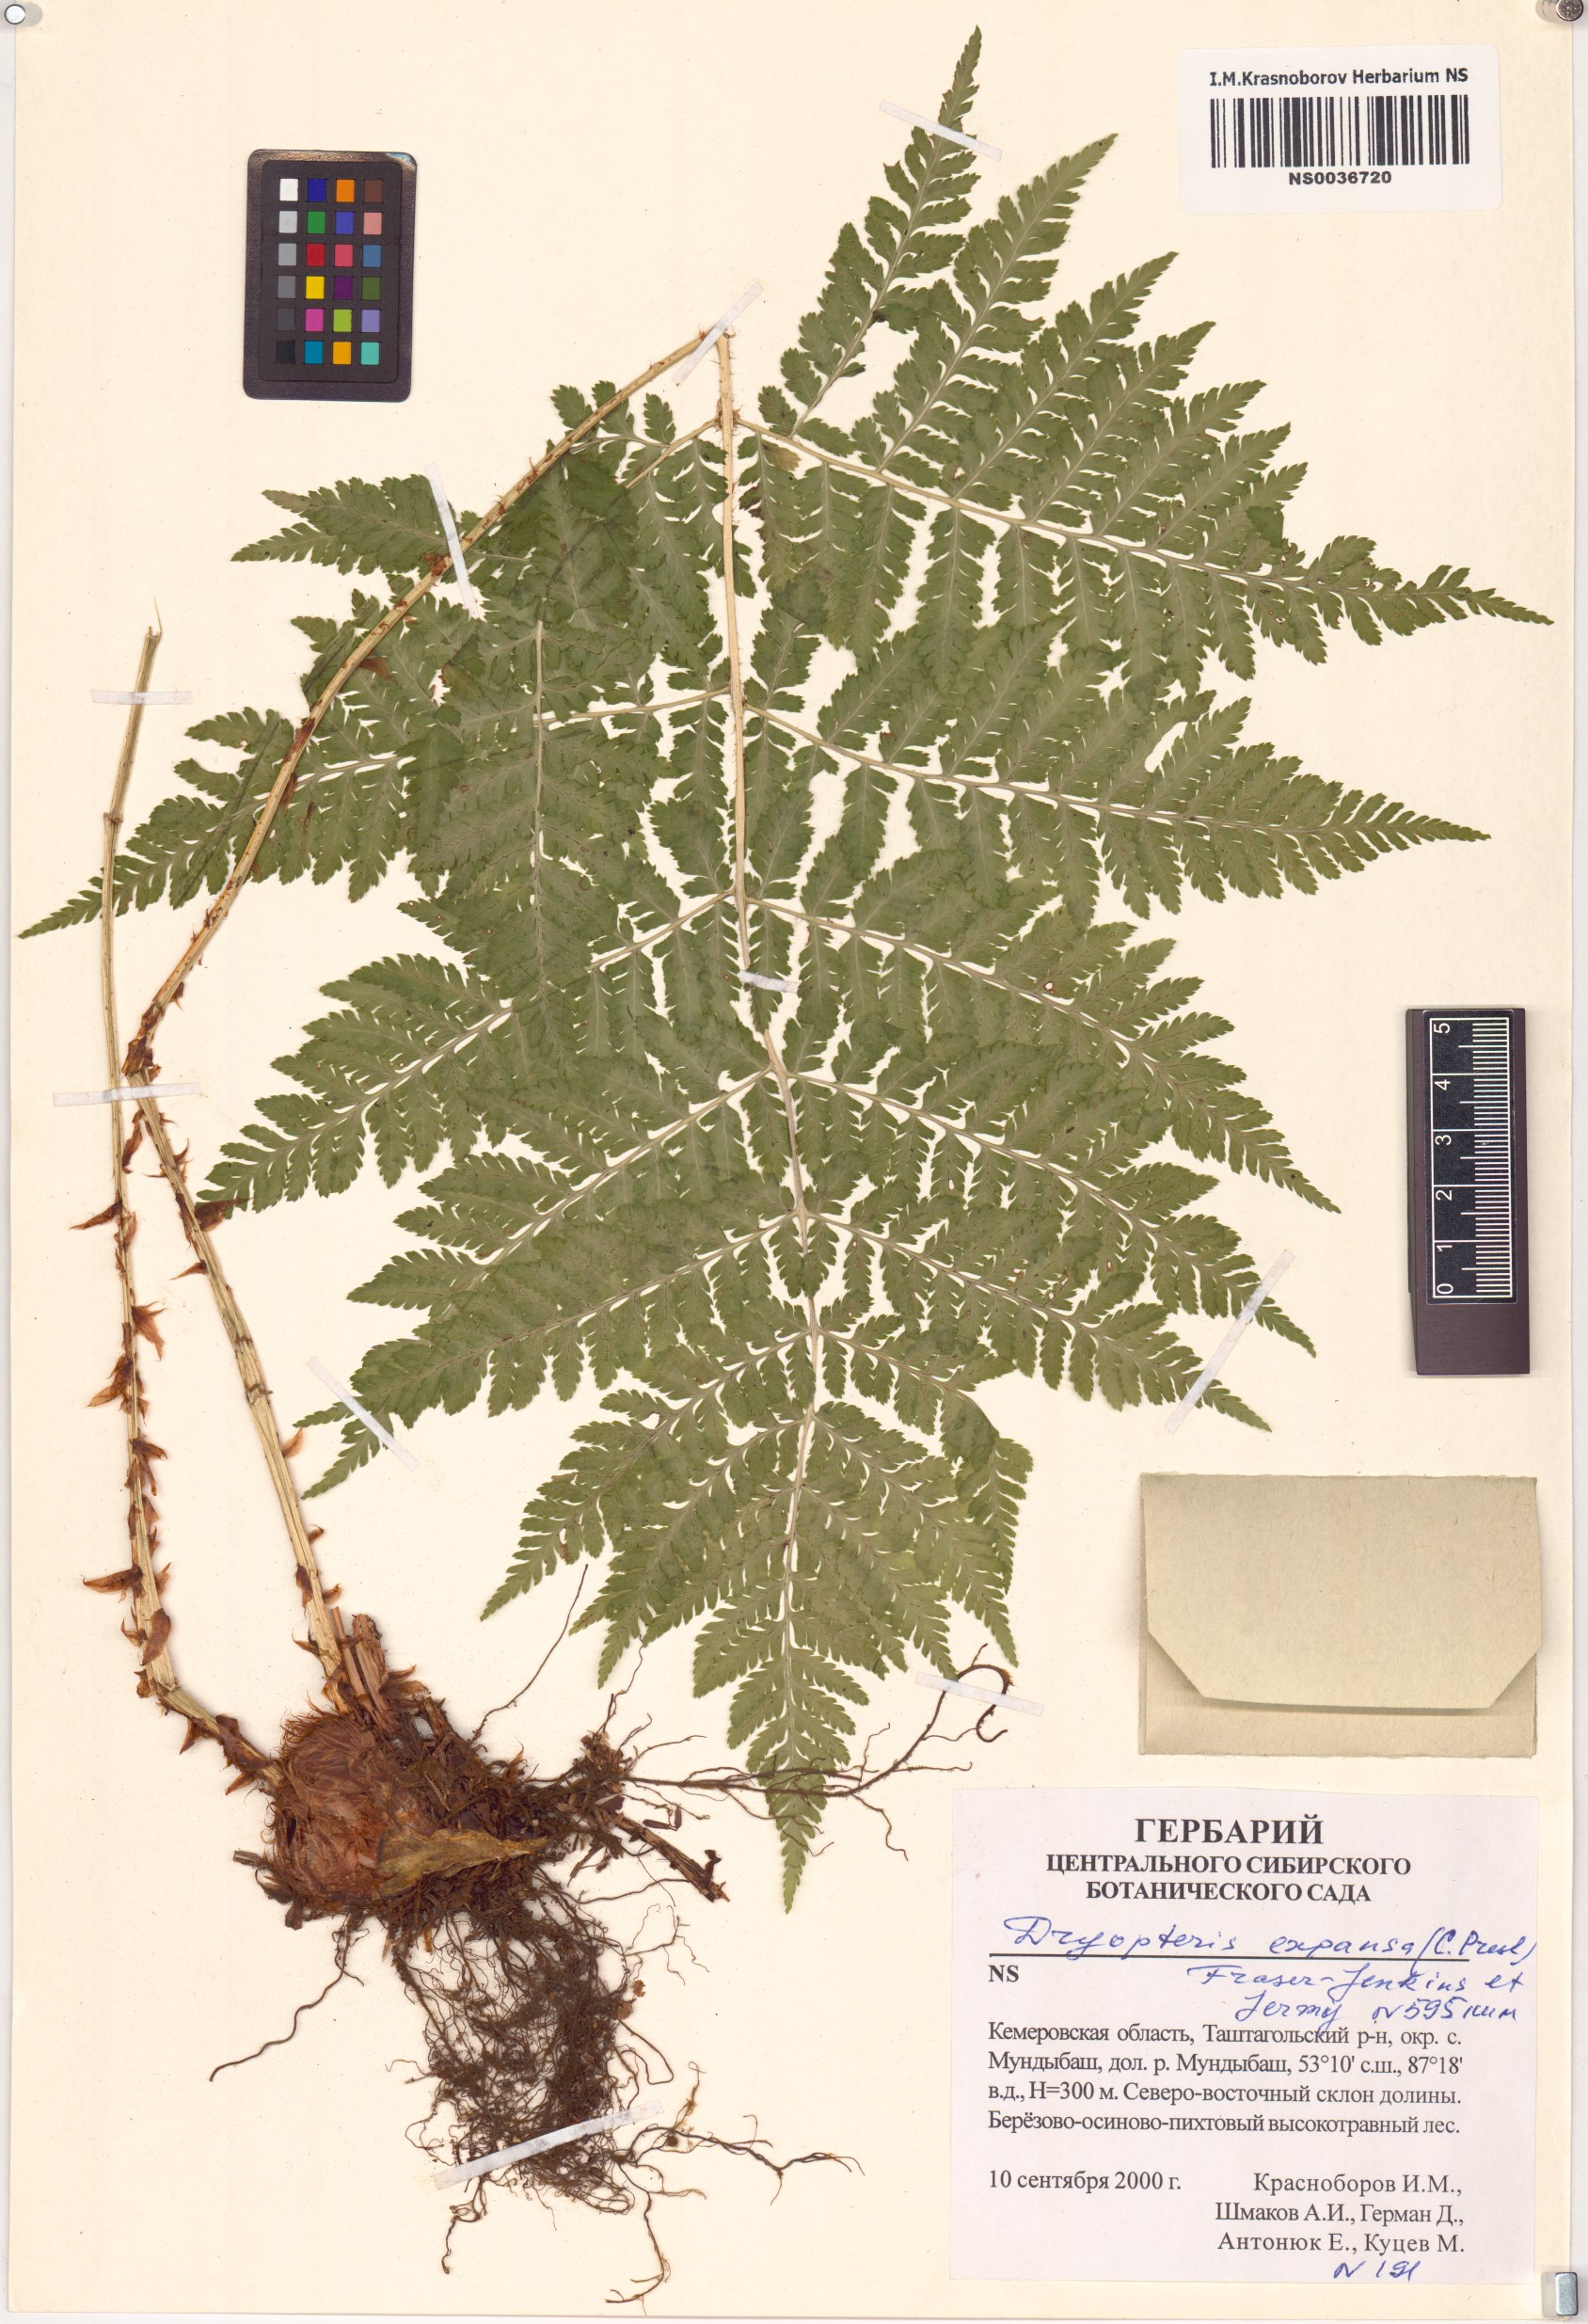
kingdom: Plantae
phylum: Tracheophyta
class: Polypodiopsida
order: Polypodiales
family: Dryopteridaceae
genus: Dryopteris
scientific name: Dryopteris expansa
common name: Northern buckler fern
